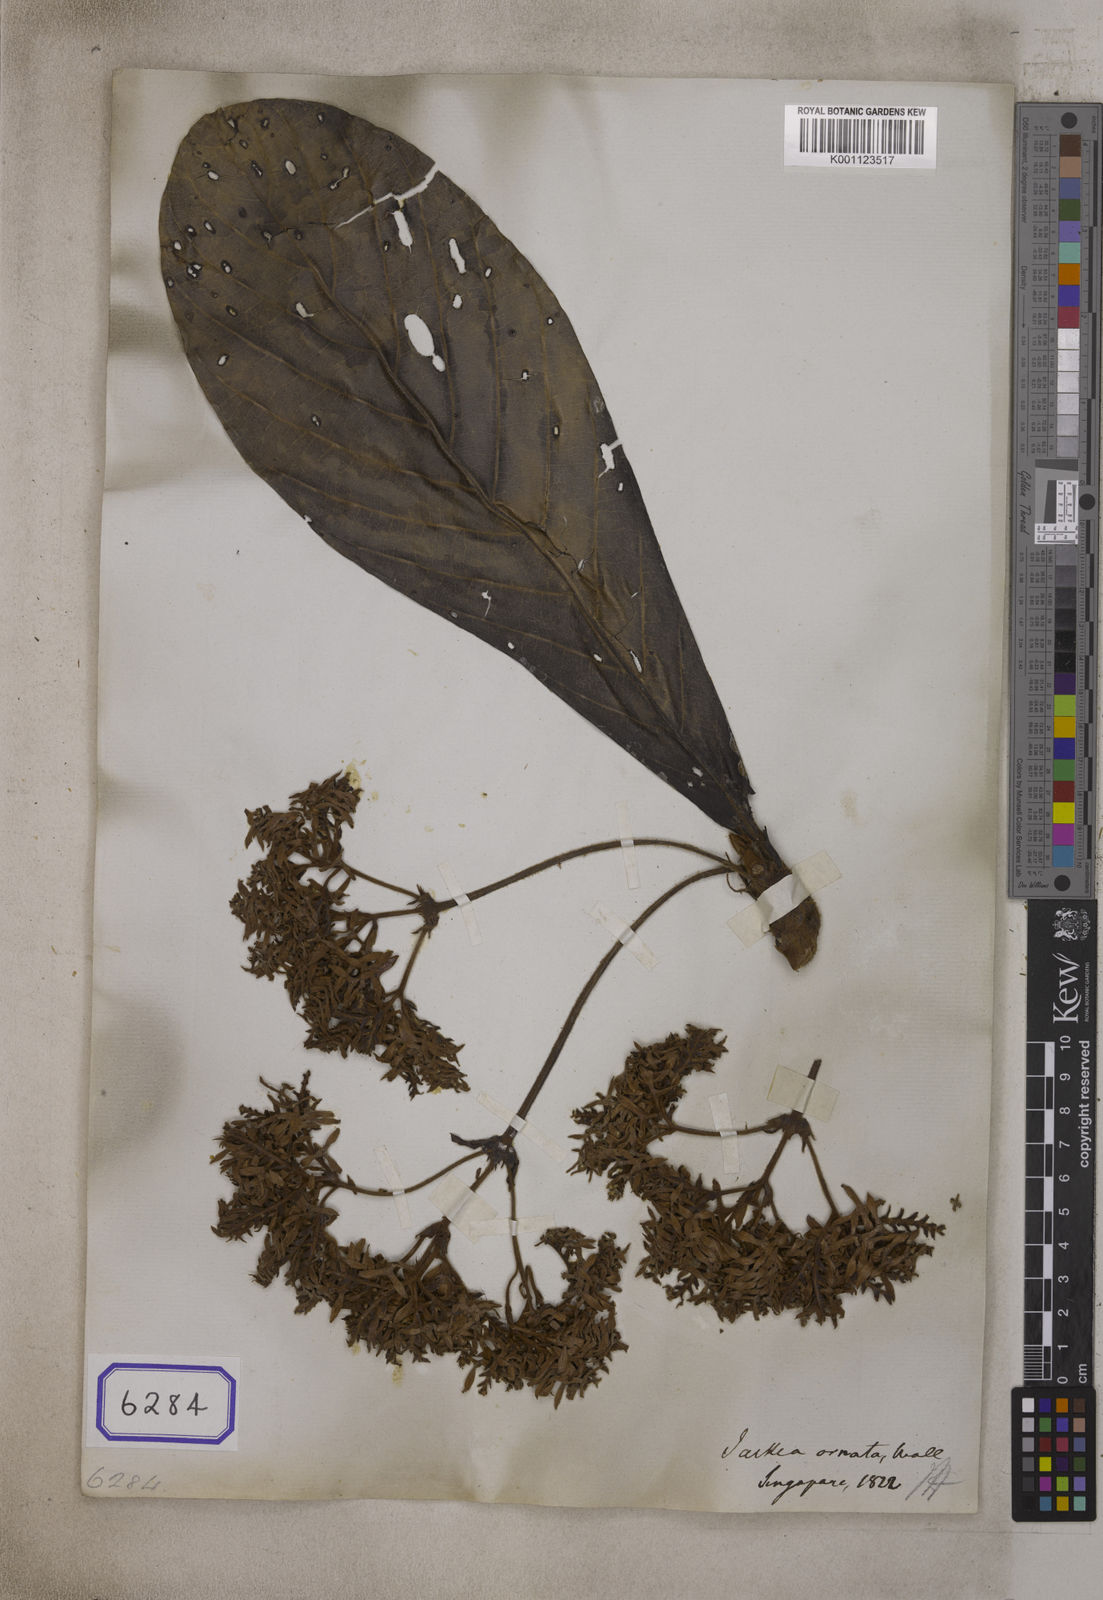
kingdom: Plantae
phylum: Tracheophyta
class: Magnoliopsida
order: Fabales
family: Polygalaceae
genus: Jackia
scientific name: Jackia
